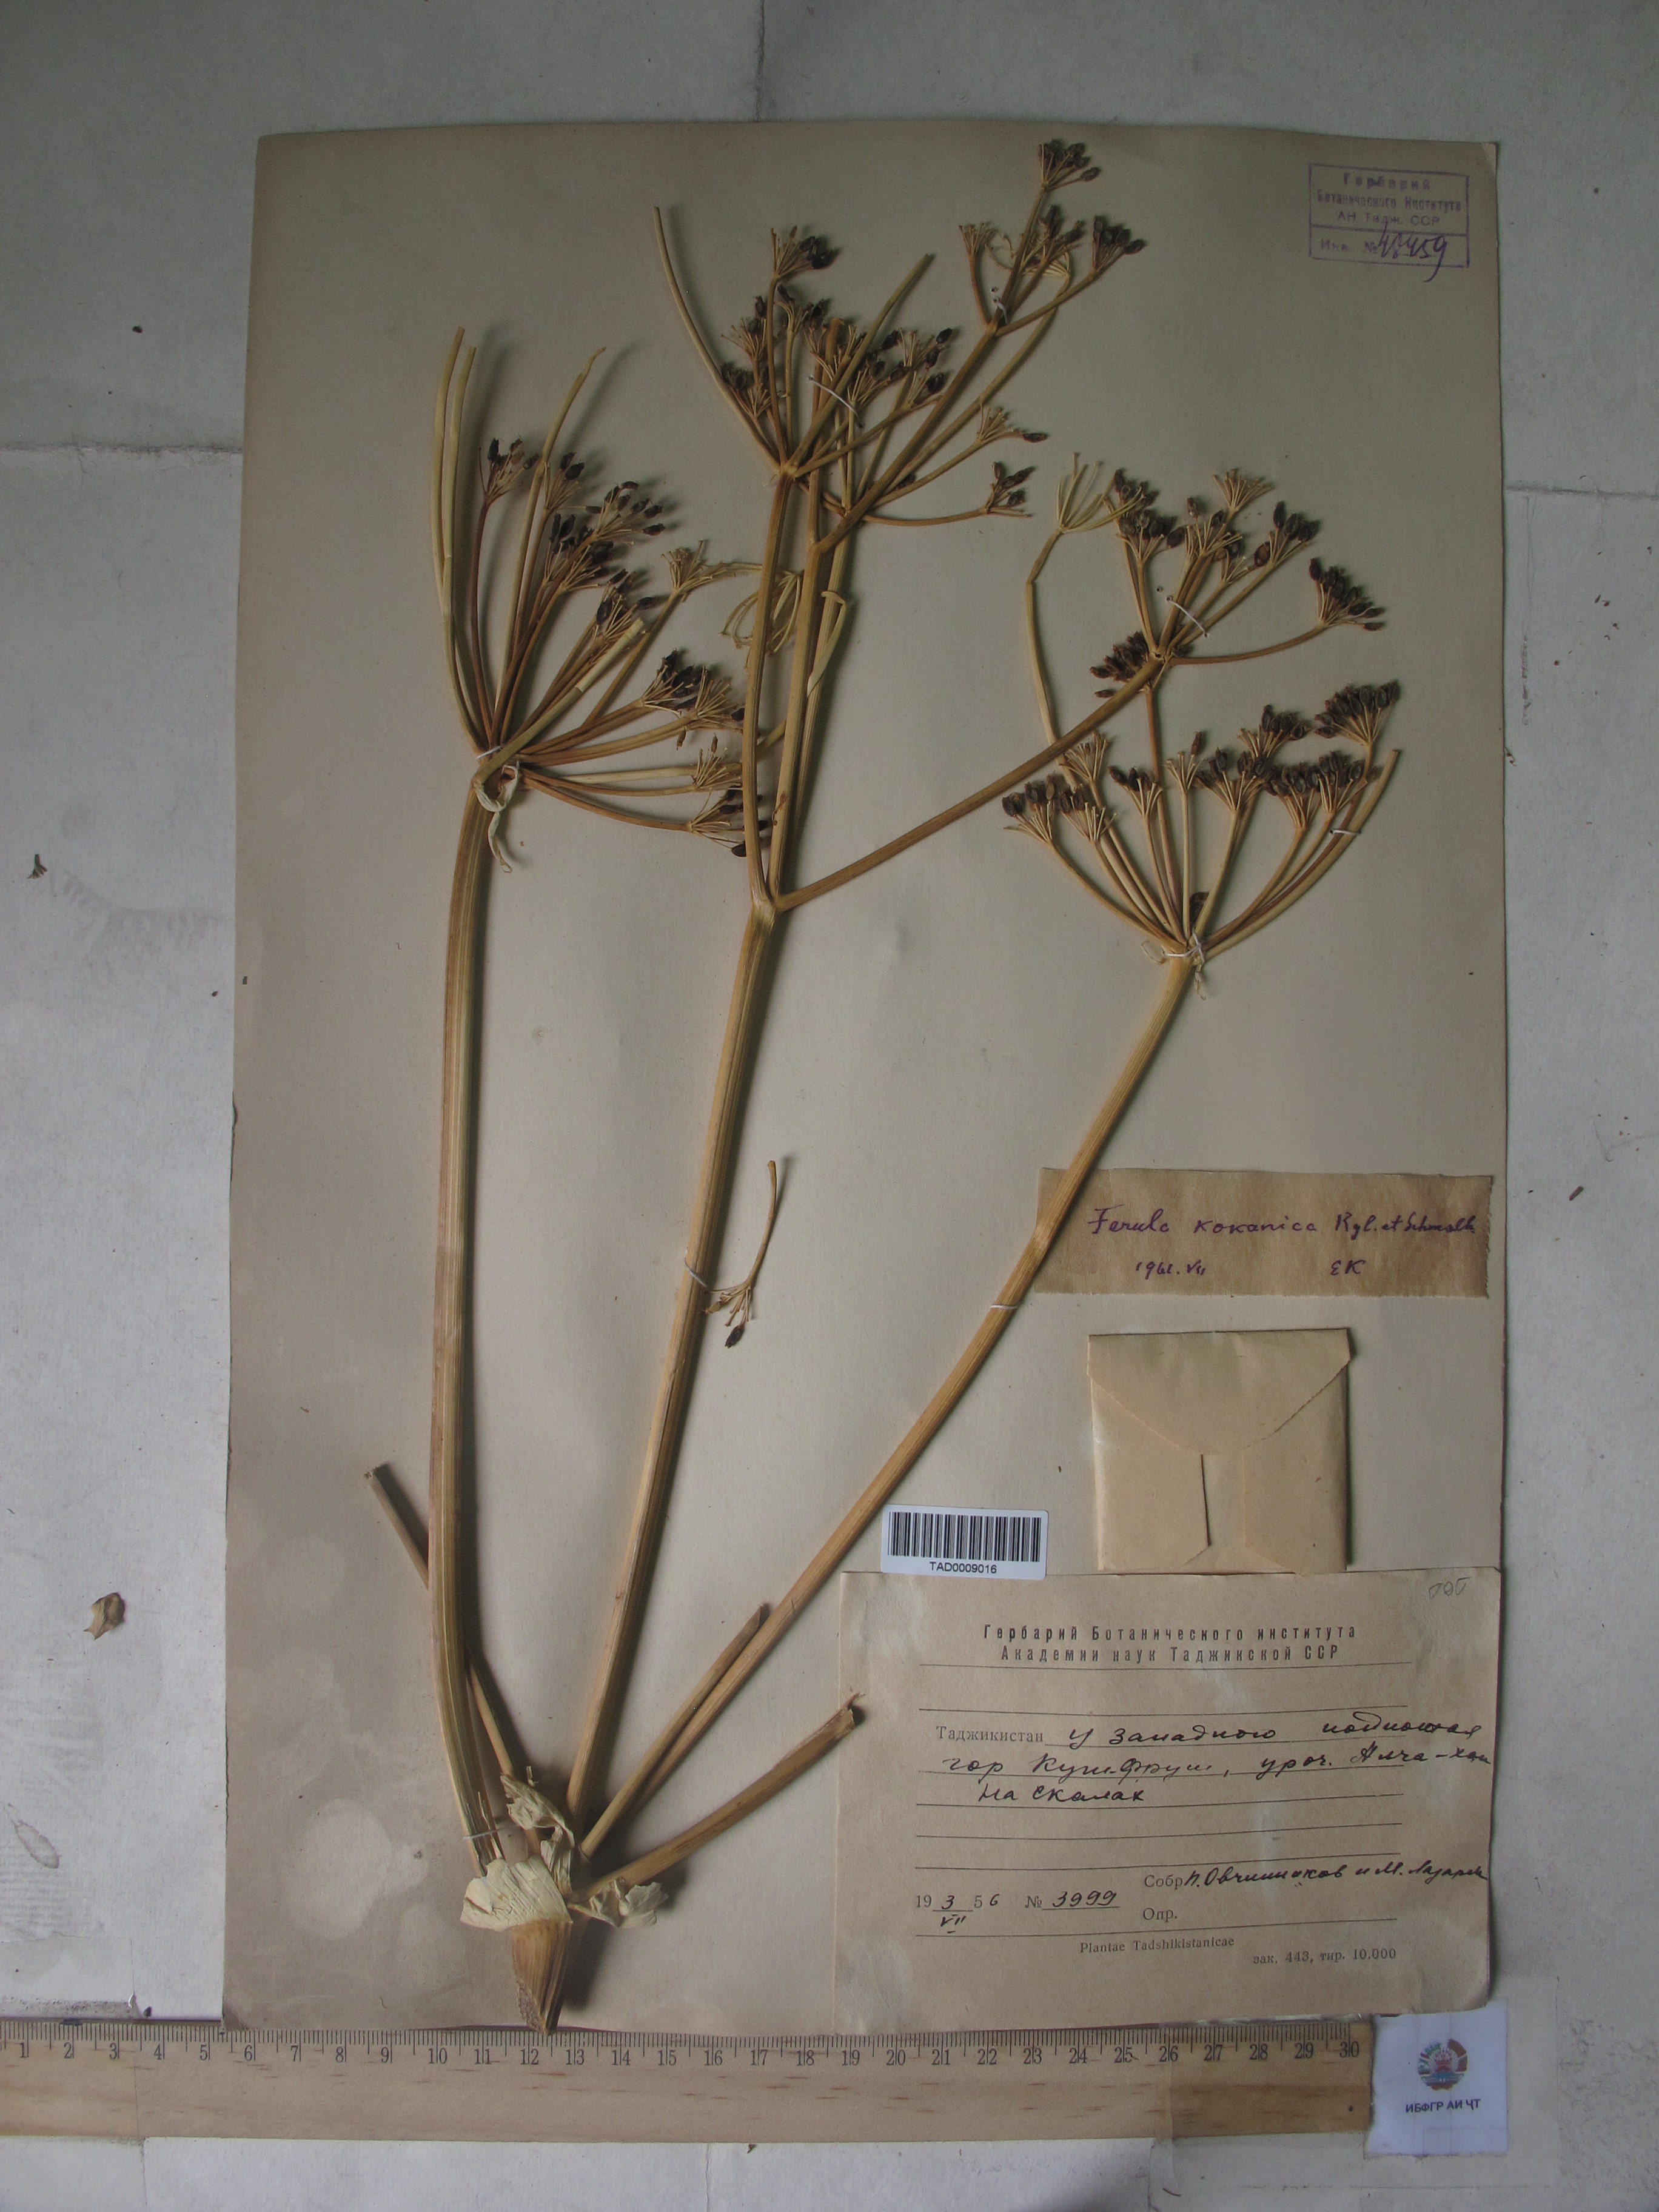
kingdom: Plantae
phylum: Tracheophyta
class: Magnoliopsida
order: Apiales
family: Apiaceae
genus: Ferula
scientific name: Ferula kokanica
